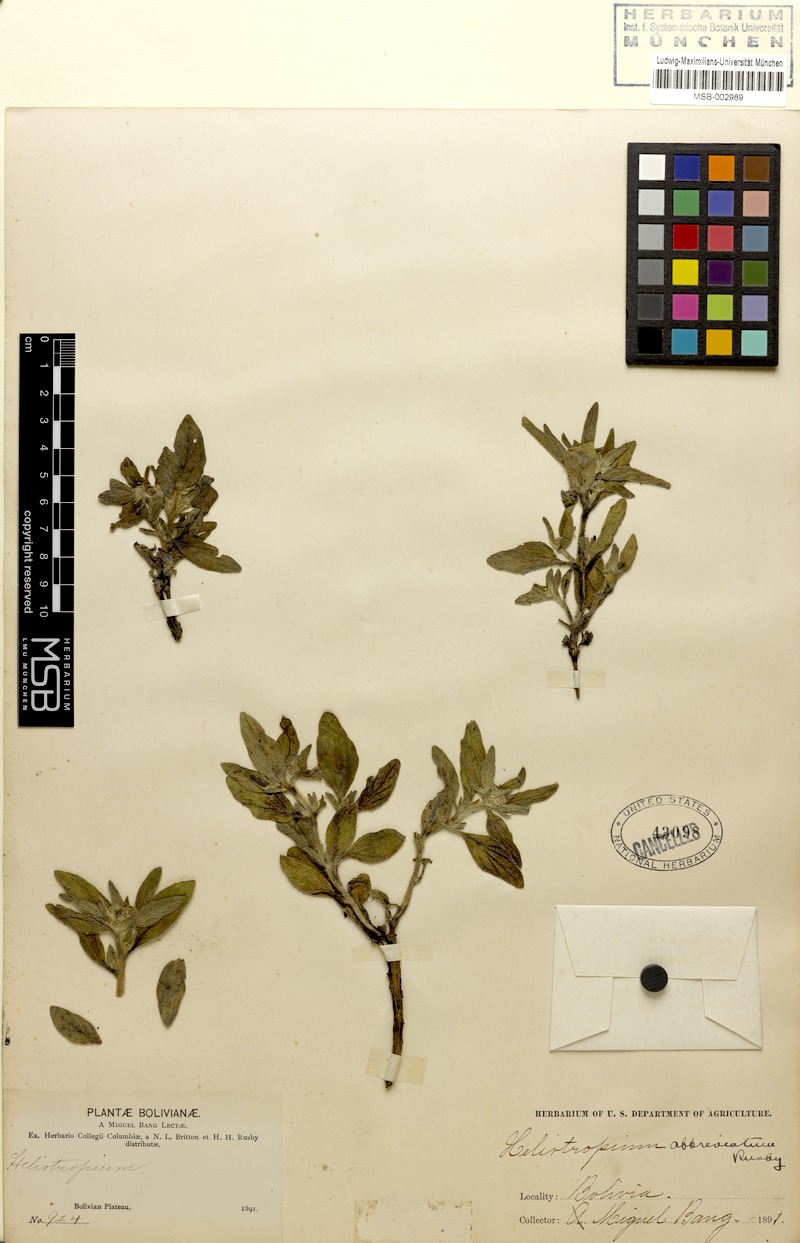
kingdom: Plantae
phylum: Tracheophyta
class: Magnoliopsida
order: Boraginales
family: Heliotropiaceae
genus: Heliotropium
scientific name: Heliotropium abbreviatum
